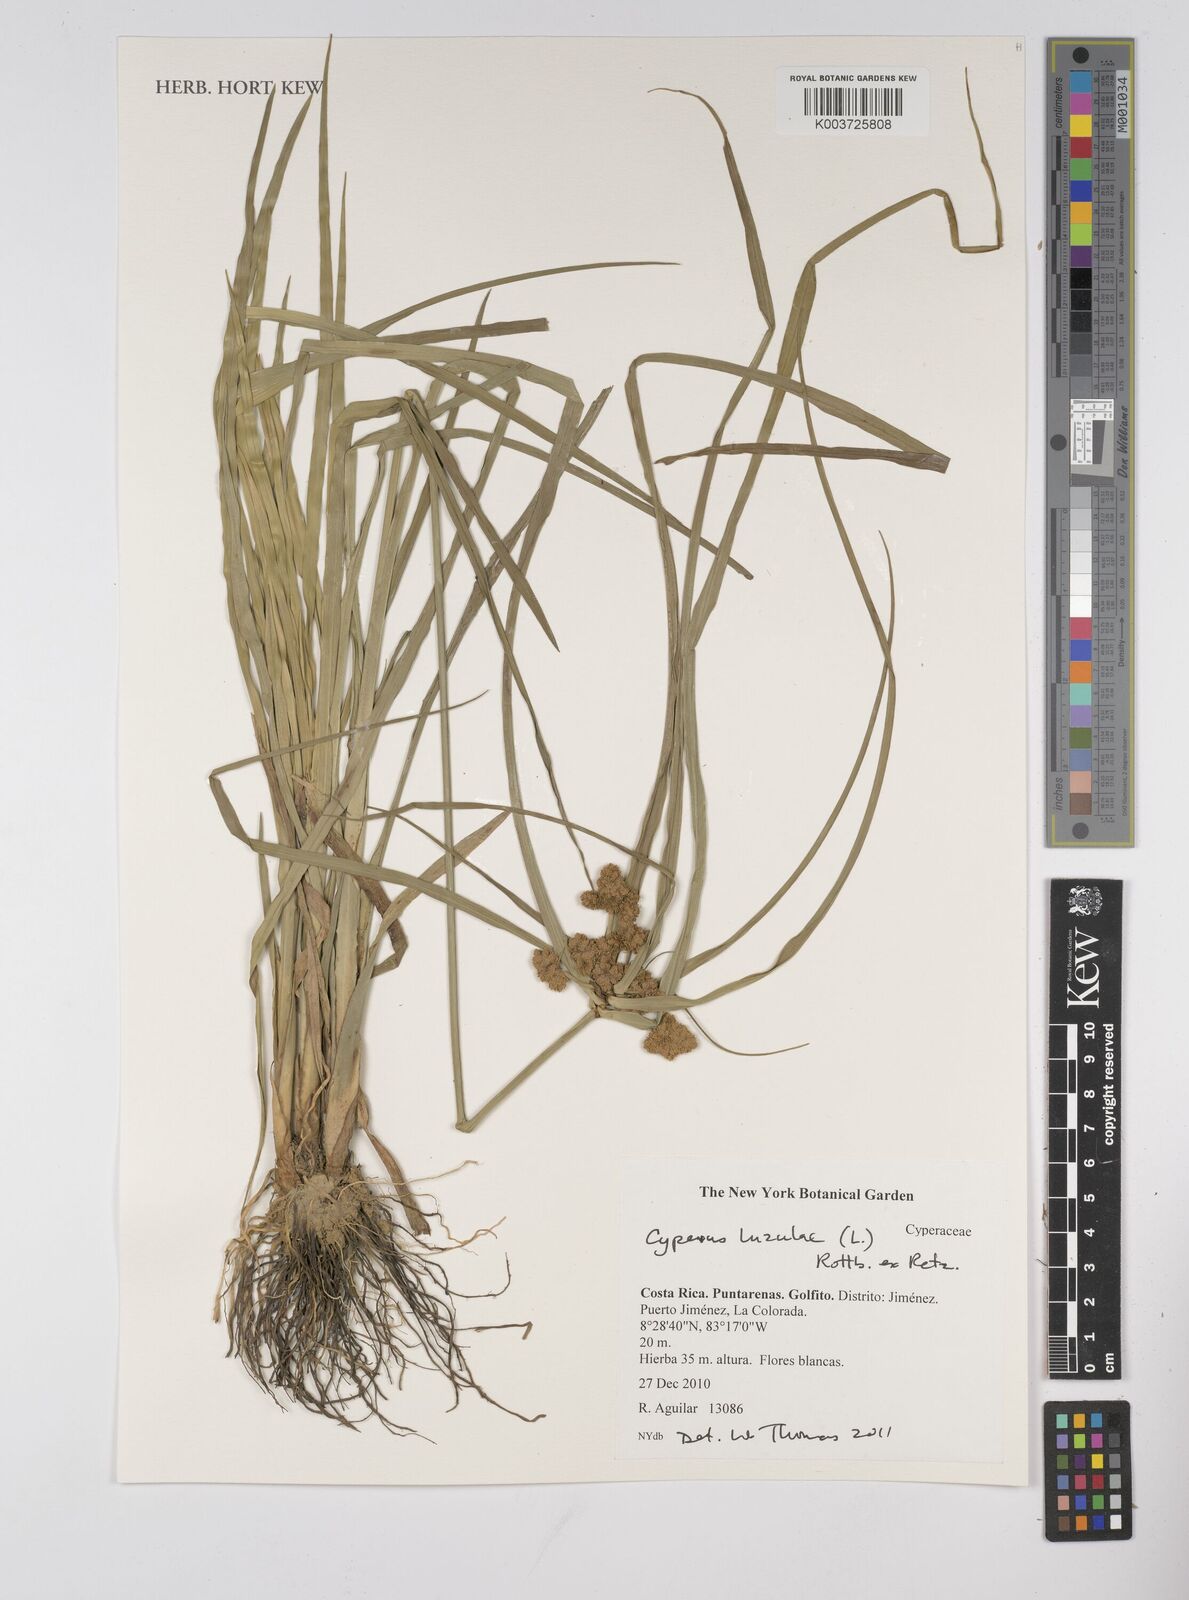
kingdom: Plantae
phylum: Tracheophyta
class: Liliopsida
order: Poales
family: Cyperaceae
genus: Cyperus
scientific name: Cyperus luzulae
